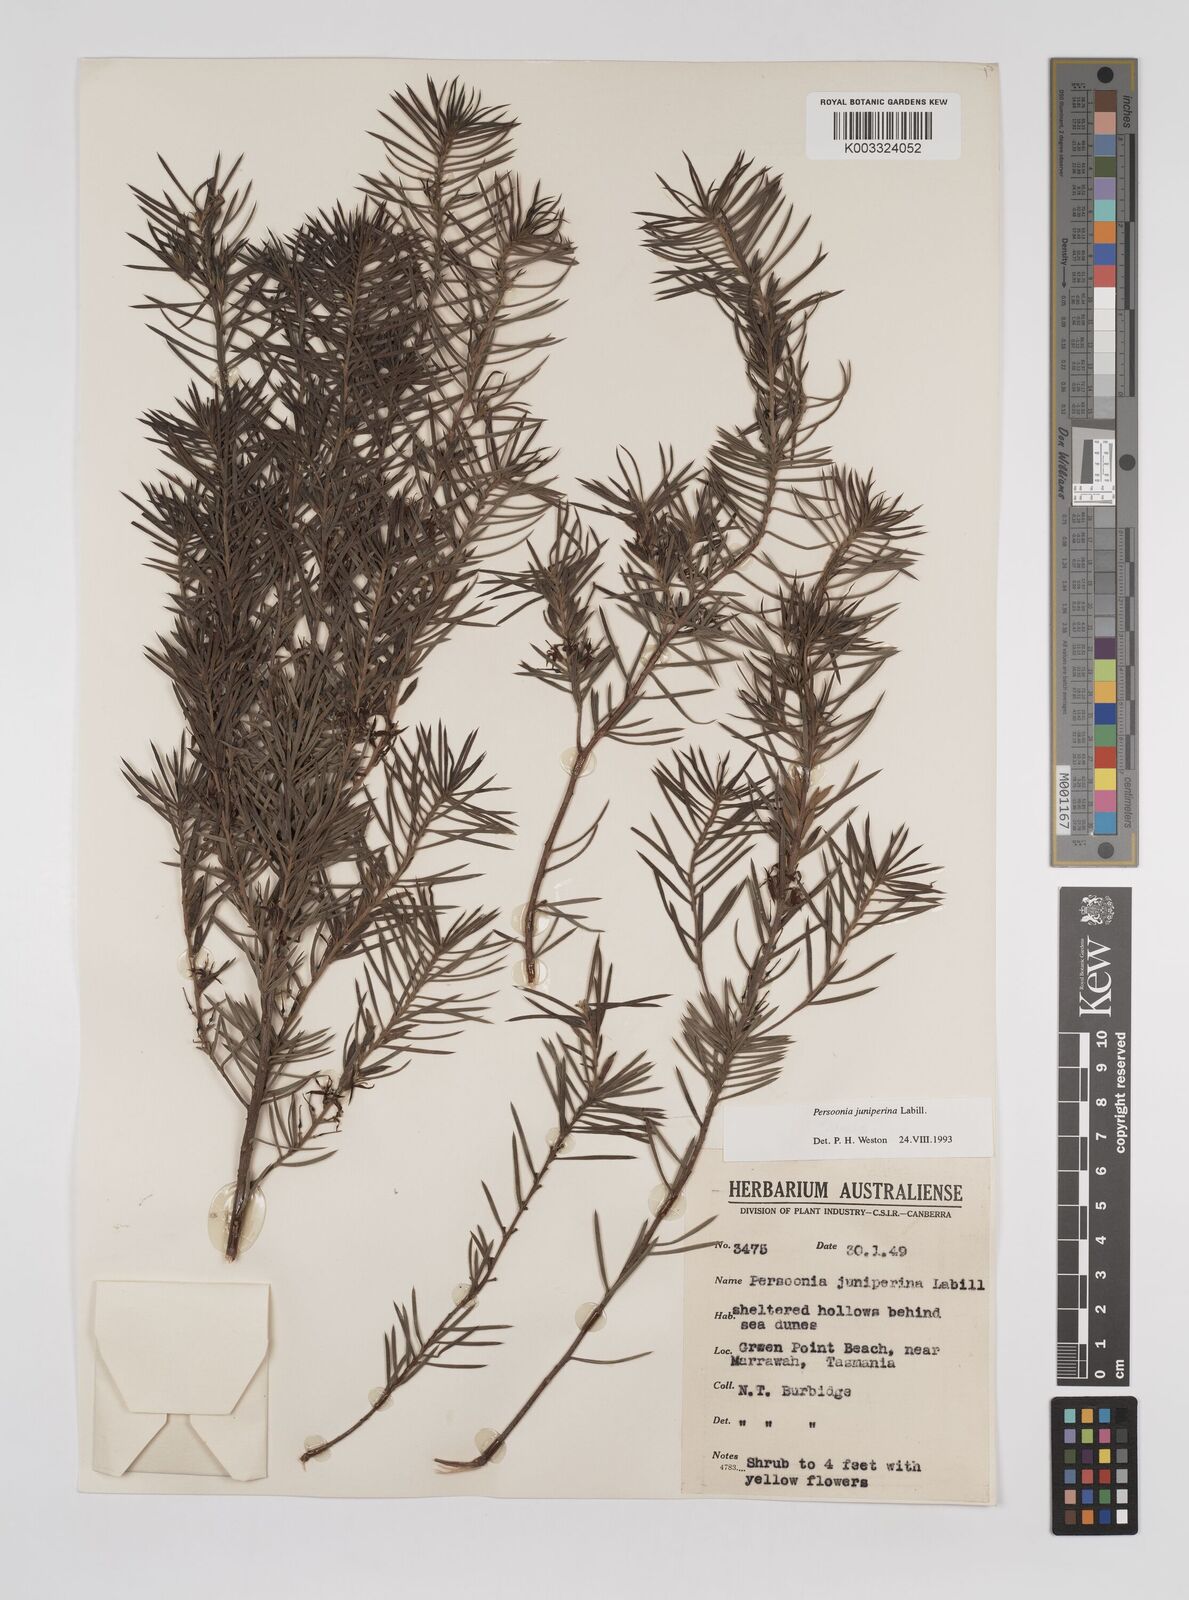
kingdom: Plantae
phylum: Tracheophyta
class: Magnoliopsida
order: Proteales
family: Proteaceae
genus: Persoonia
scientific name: Persoonia juniperina
